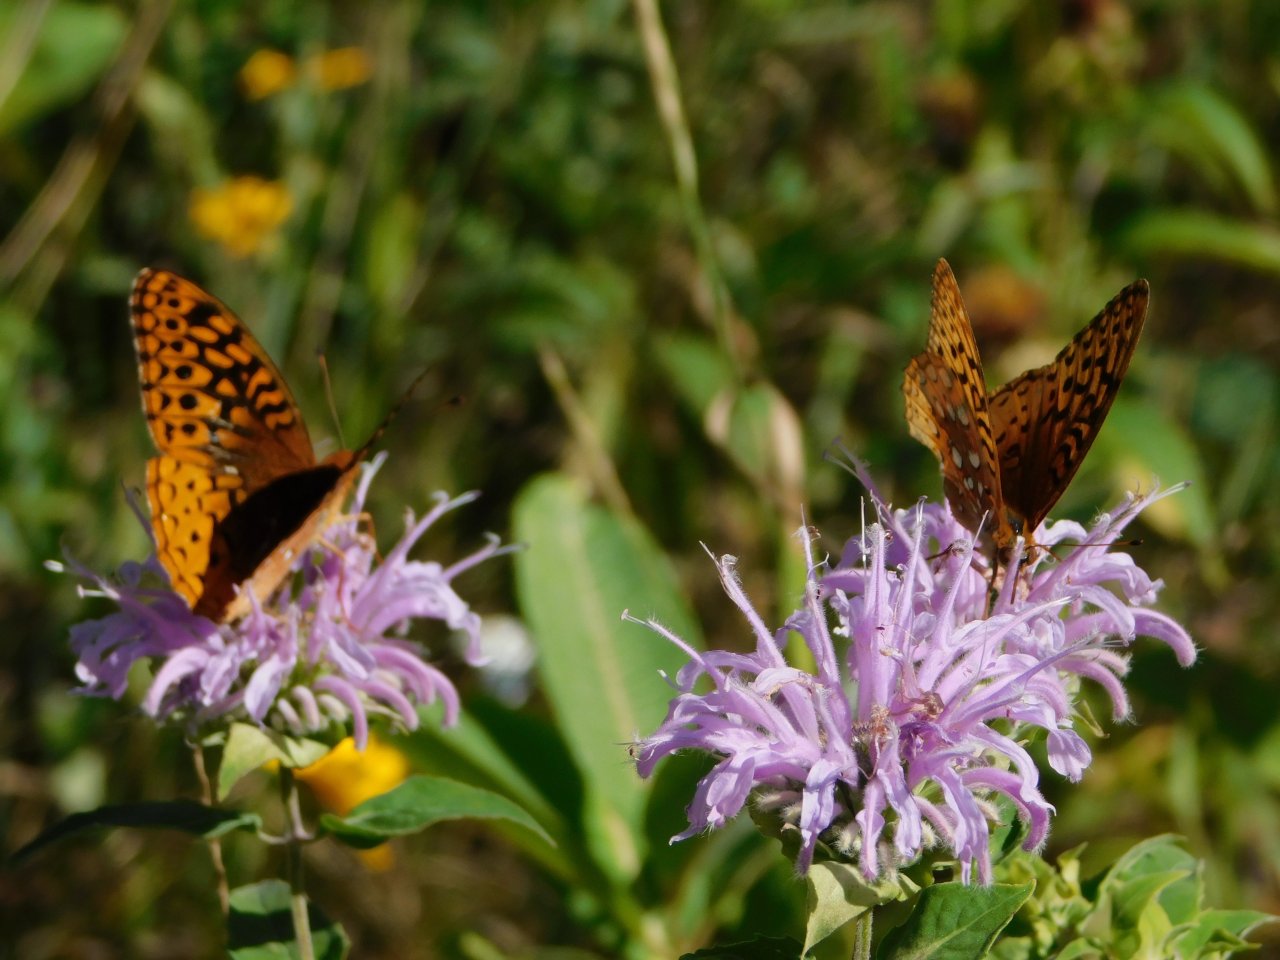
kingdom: Animalia
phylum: Arthropoda
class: Insecta
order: Lepidoptera
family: Nymphalidae
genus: Speyeria
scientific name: Speyeria cybele
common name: Great Spangled Fritillary
